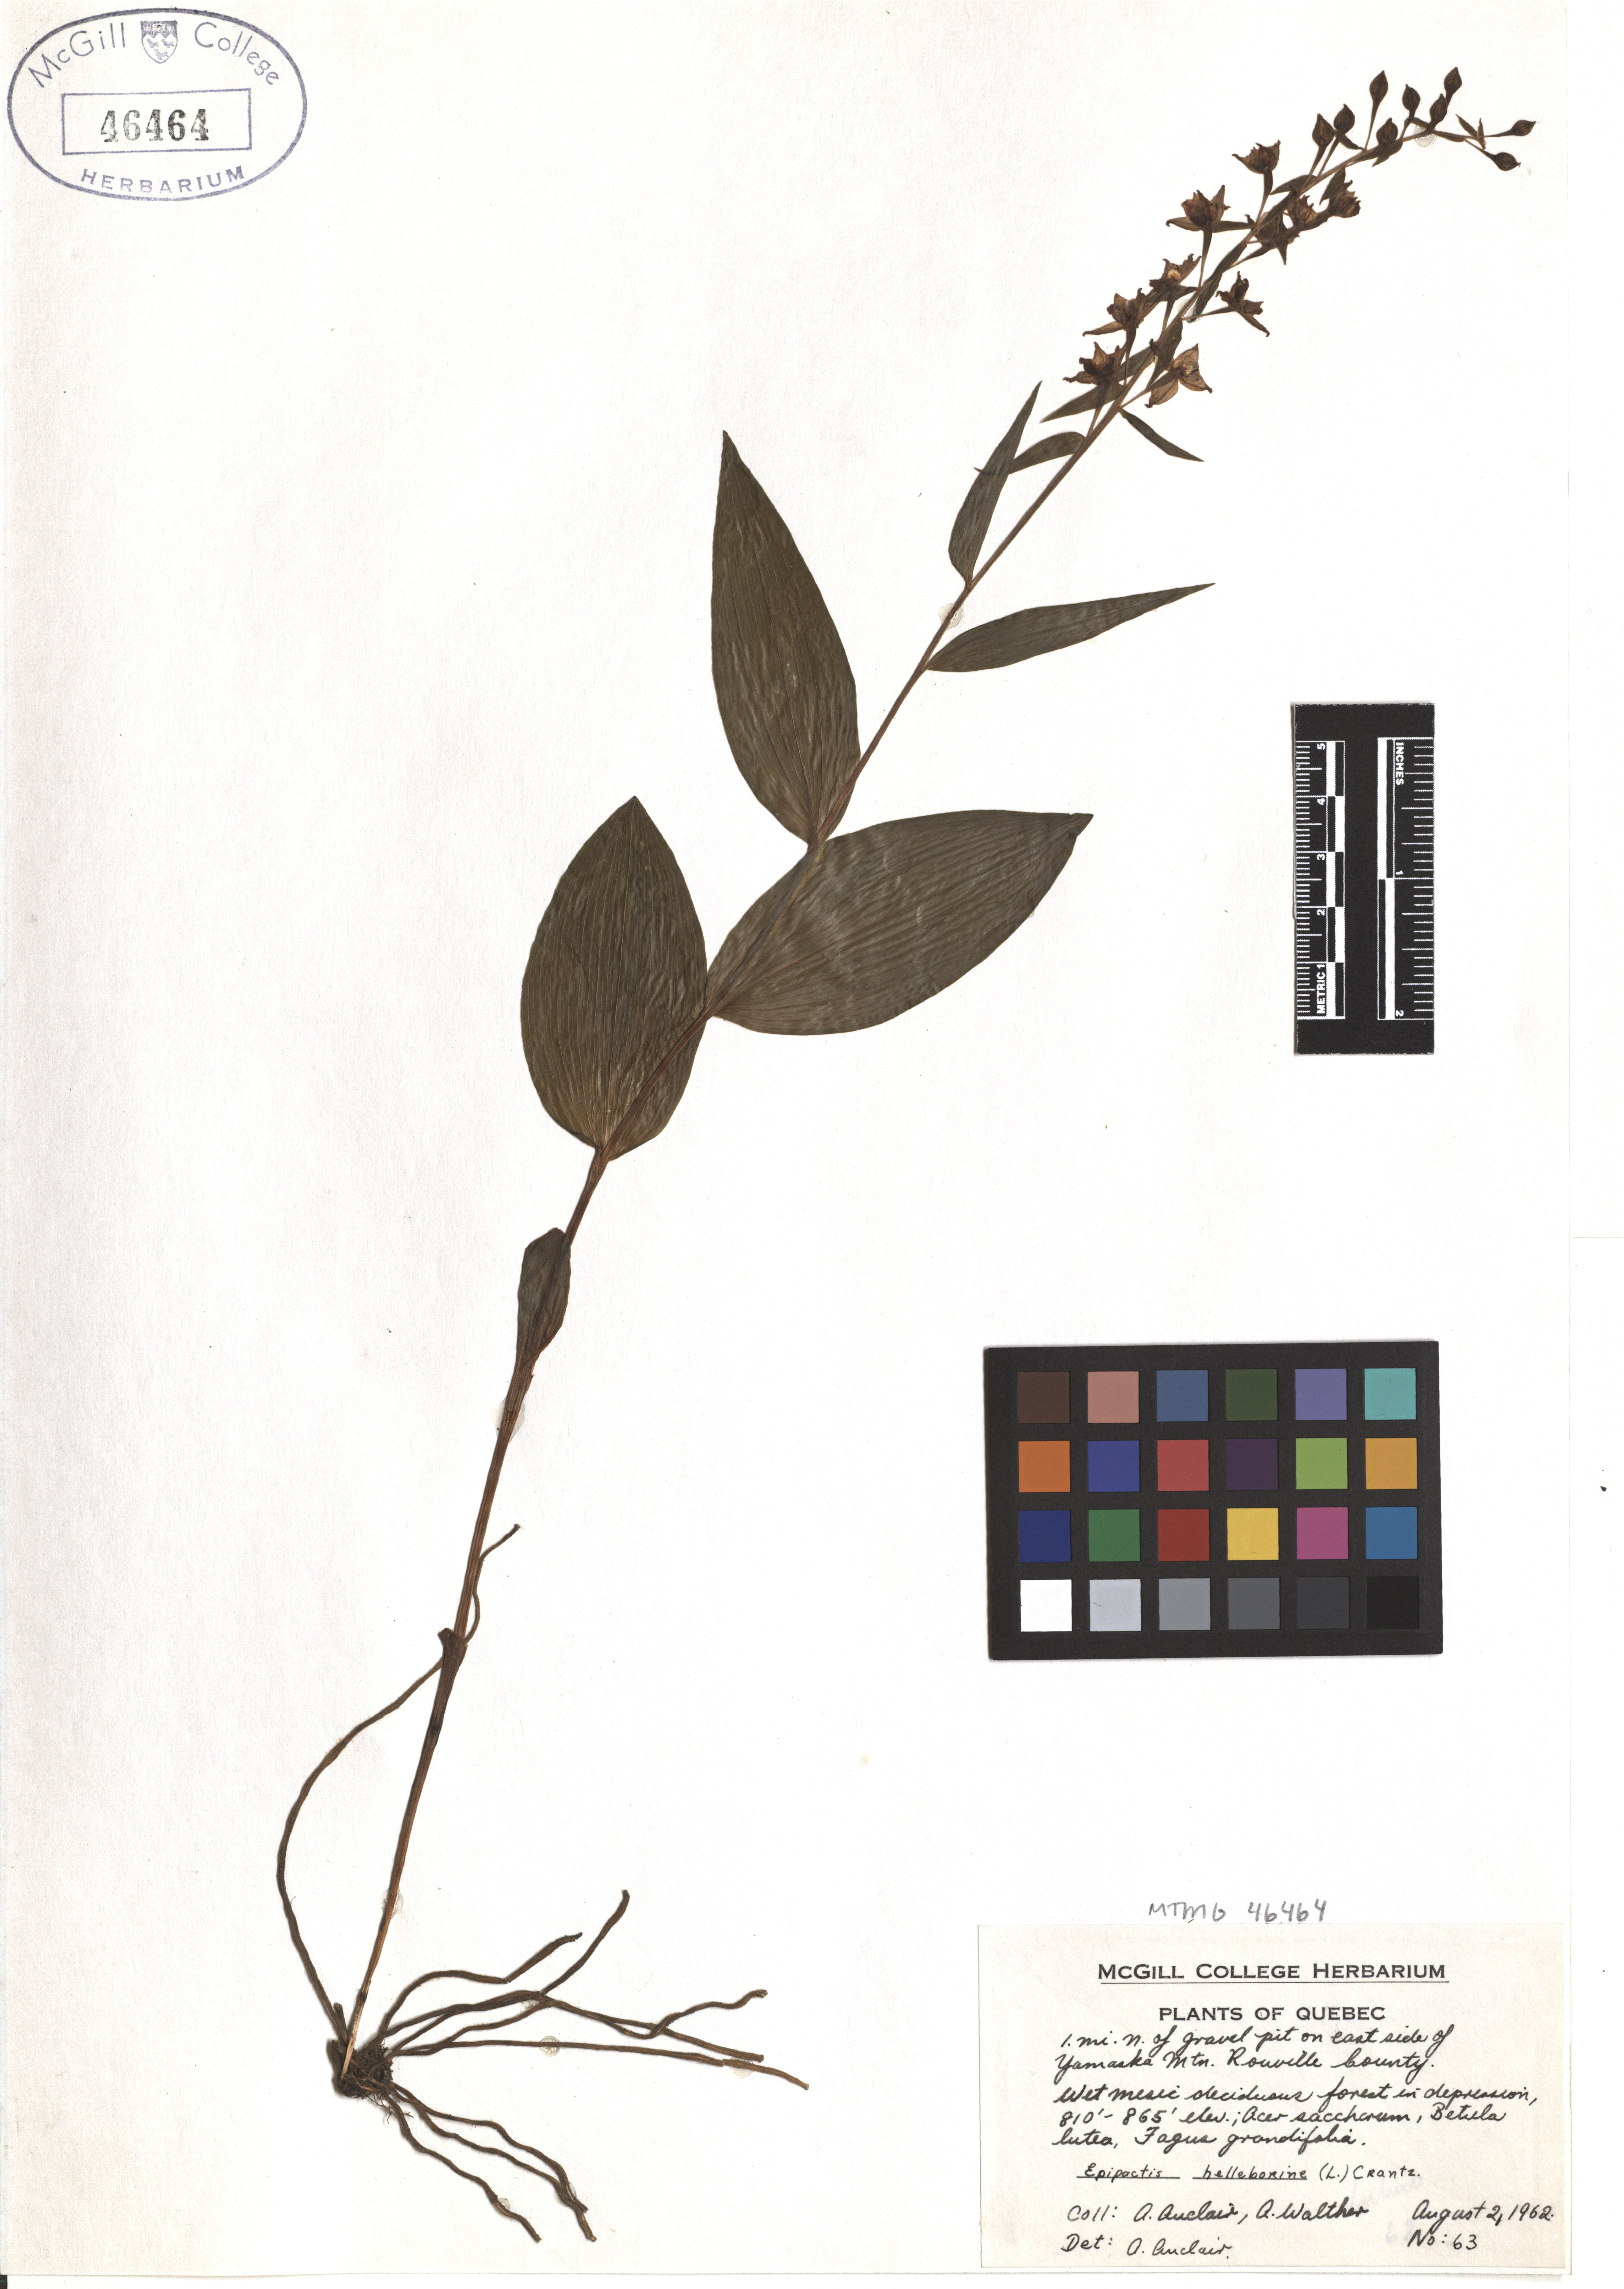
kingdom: Plantae
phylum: Tracheophyta
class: Liliopsida
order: Asparagales
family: Orchidaceae
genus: Epipactis
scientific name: Epipactis helleborine
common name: Broad-leaved helleborine
